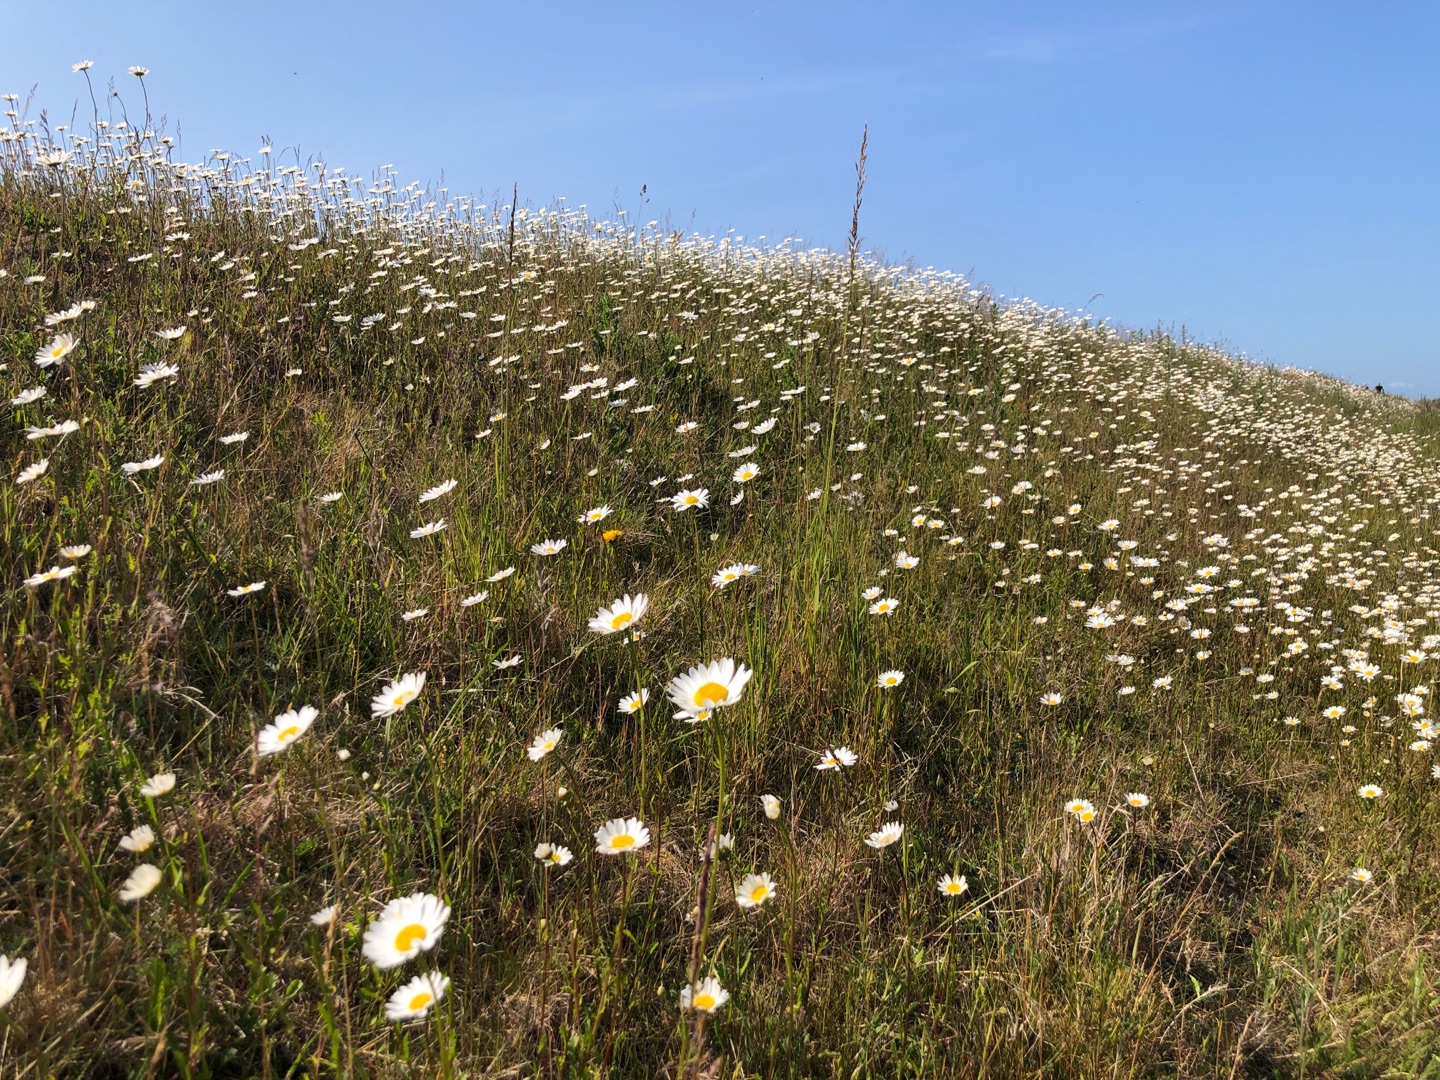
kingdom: Plantae
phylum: Tracheophyta
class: Magnoliopsida
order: Asterales
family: Asteraceae
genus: Leucanthemum
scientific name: Leucanthemum vulgare
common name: Hvid okseøje
